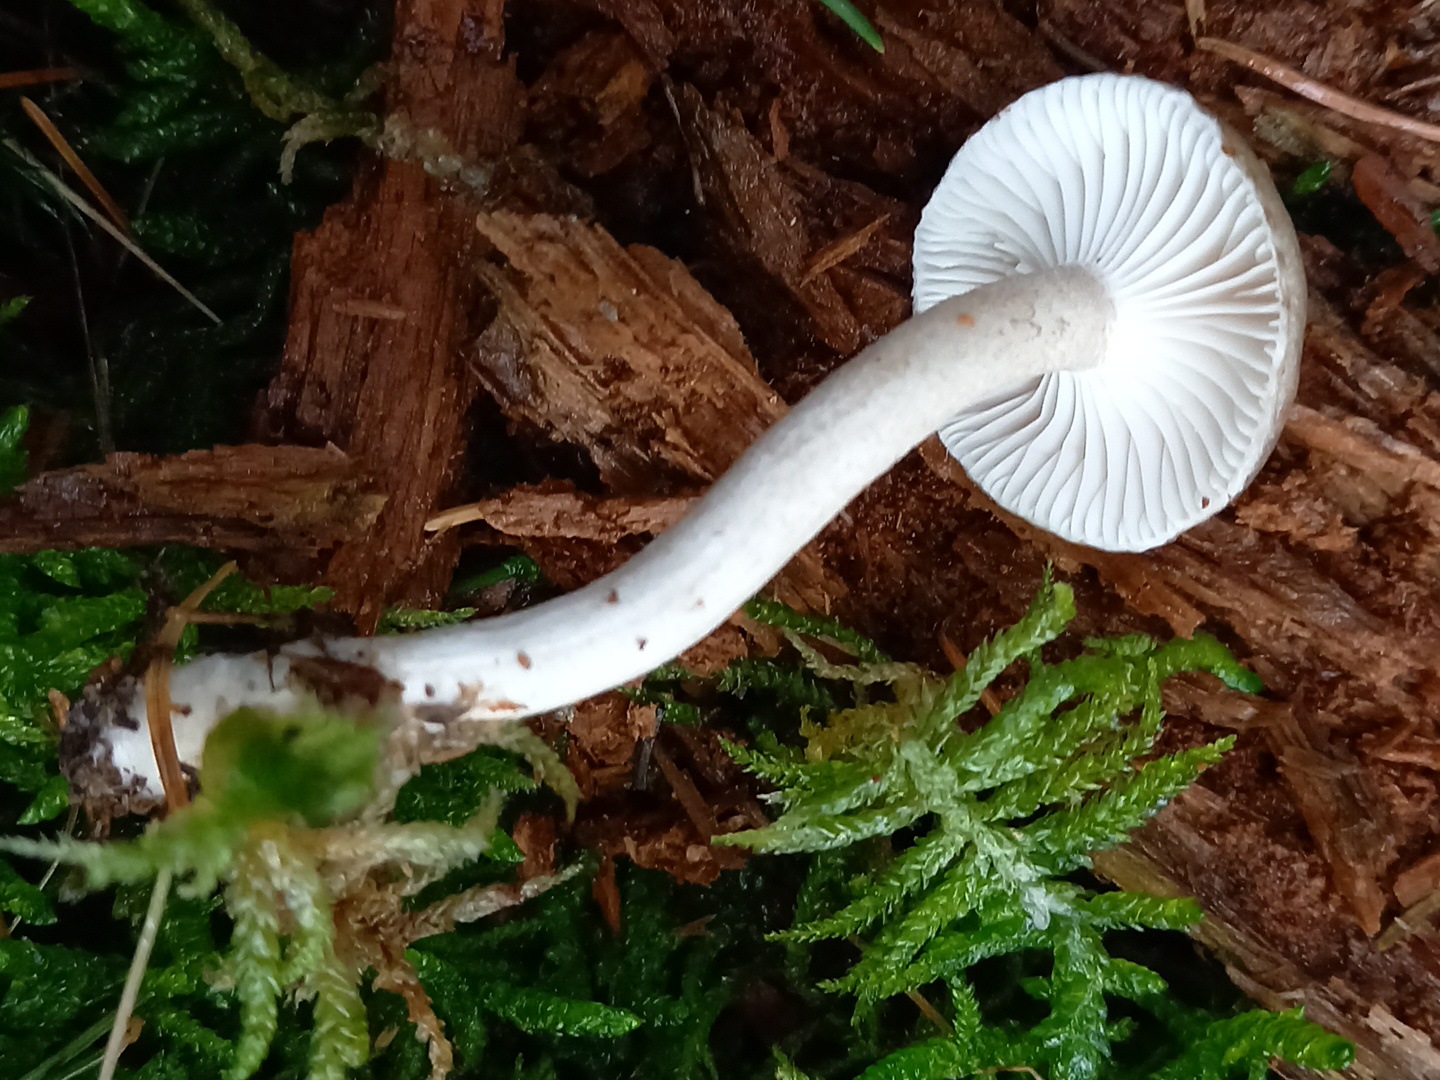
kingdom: Fungi
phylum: Basidiomycota
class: Agaricomycetes
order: Agaricales
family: Hygrophoraceae
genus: Hygrophorus
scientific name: Hygrophorus pustulatus
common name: mørkprikket sneglehat
